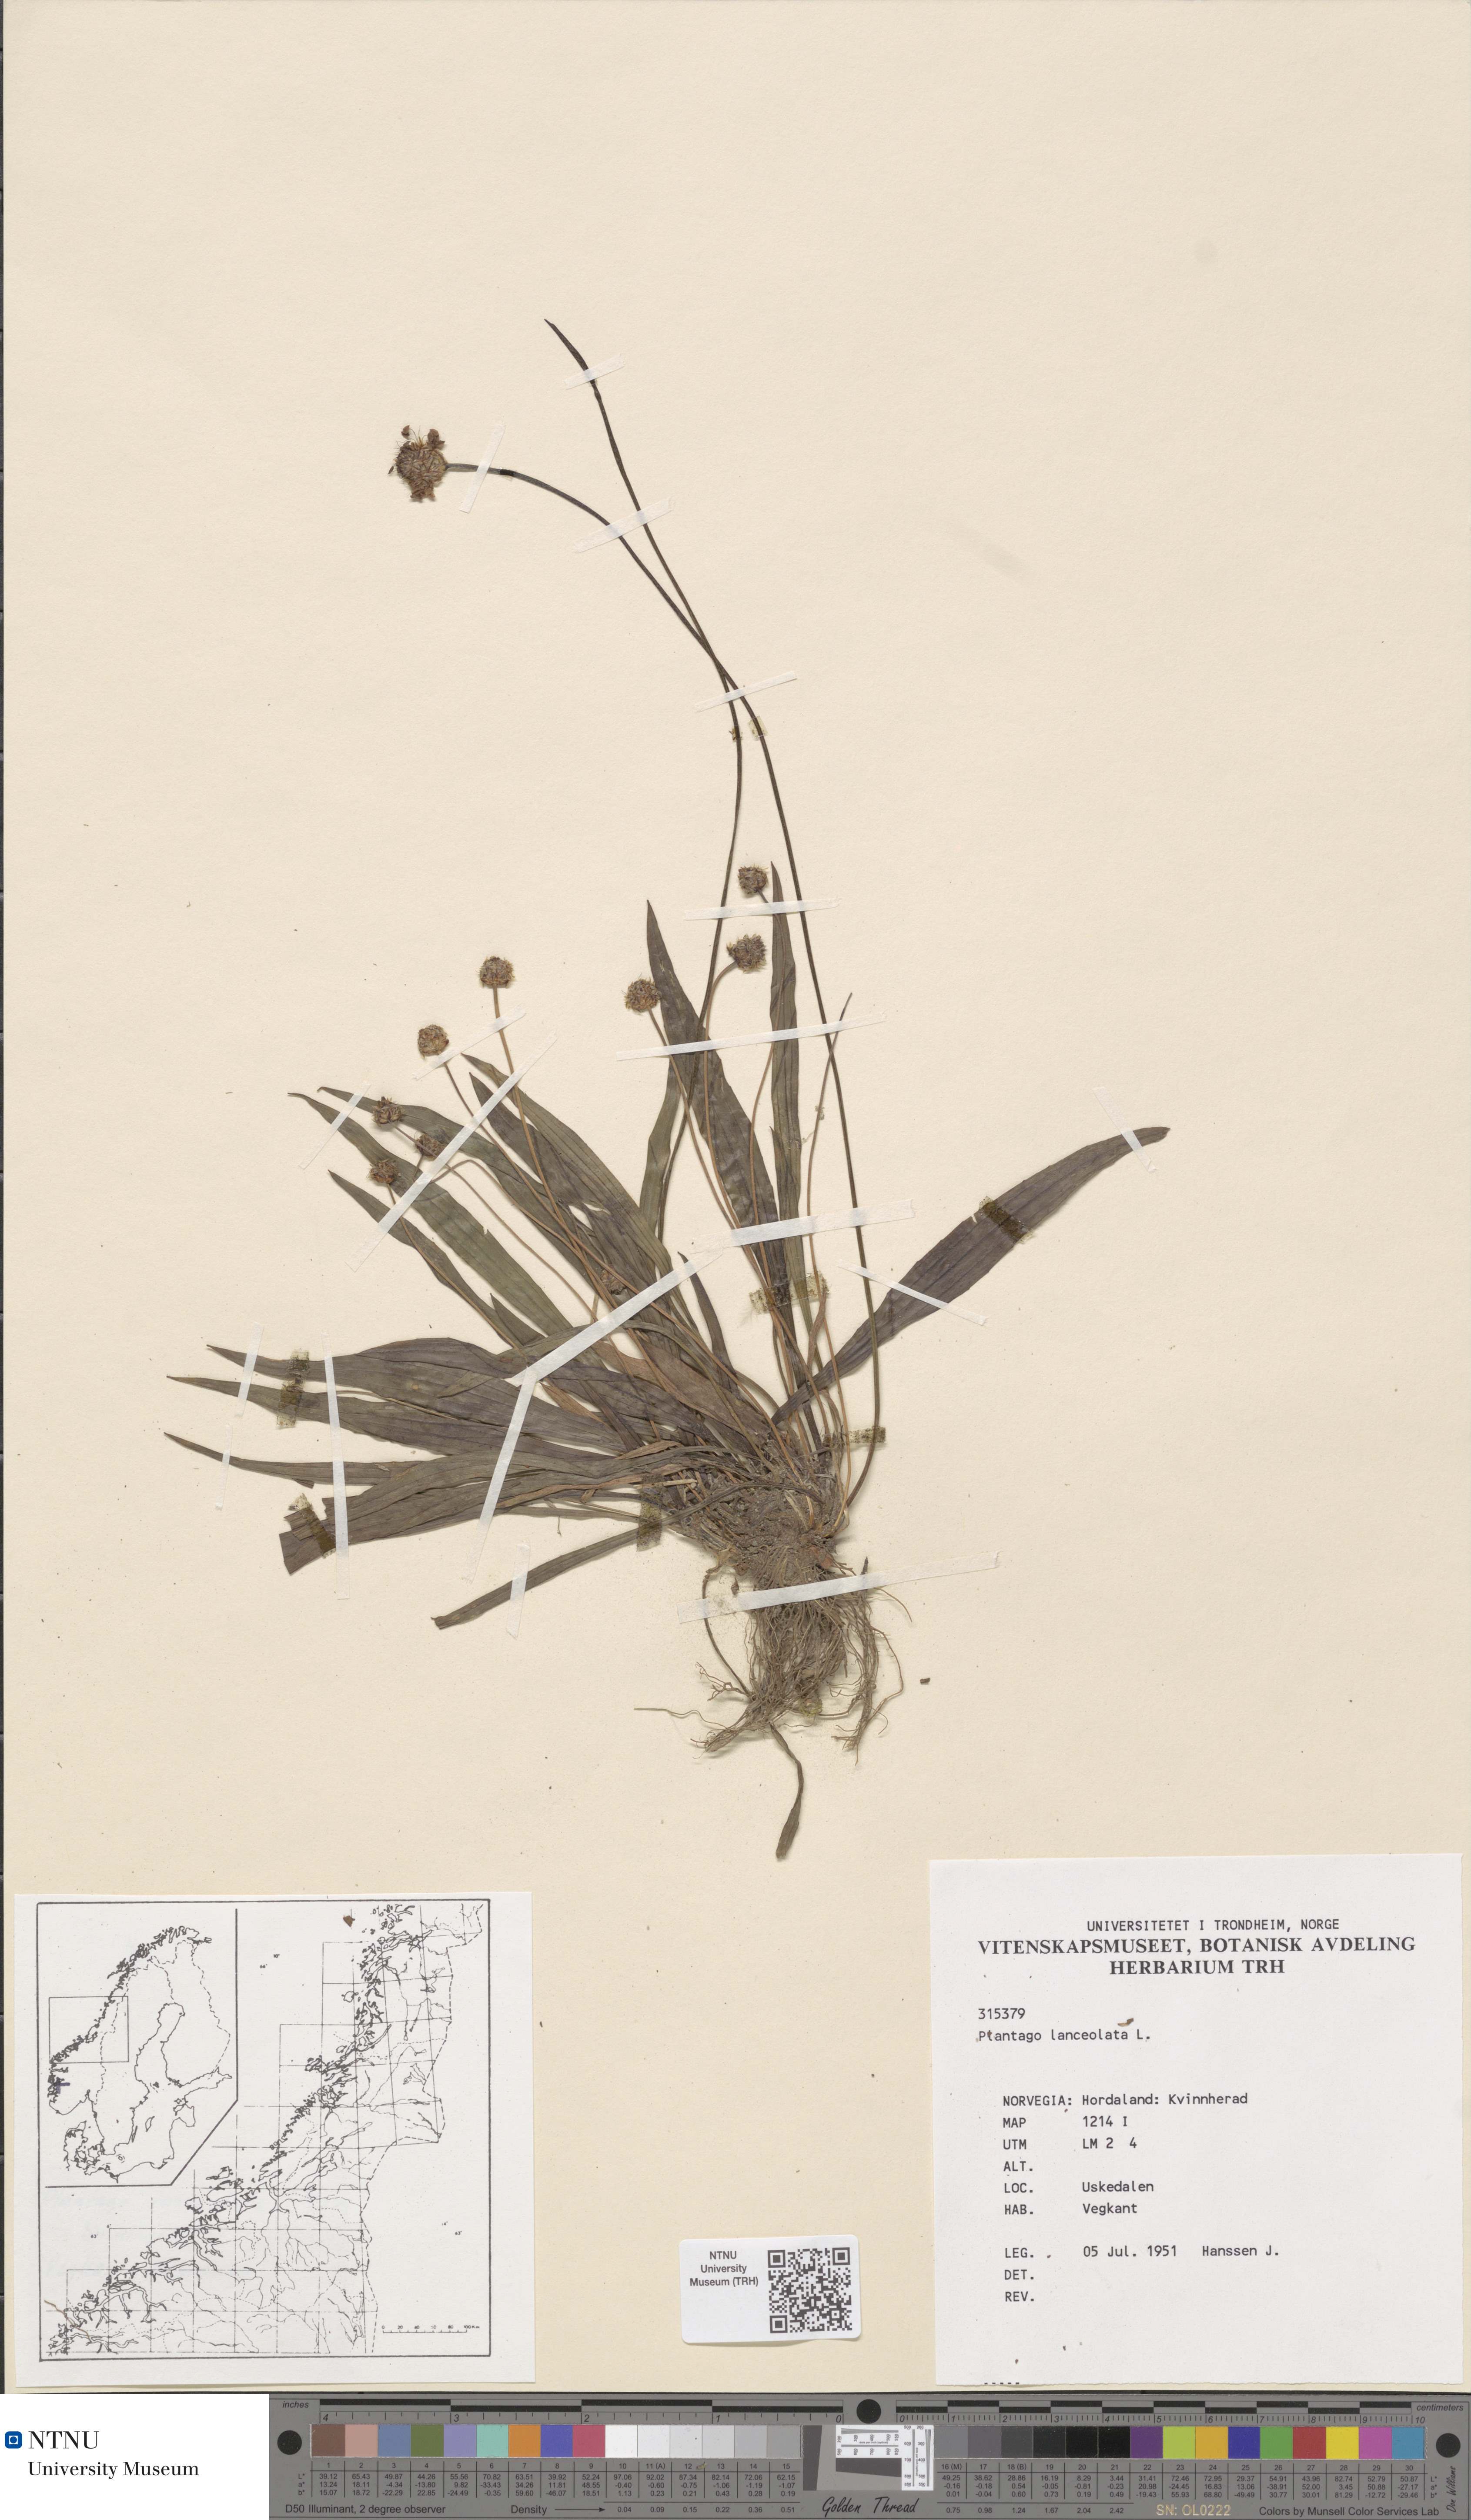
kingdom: Plantae
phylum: Tracheophyta
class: Magnoliopsida
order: Lamiales
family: Plantaginaceae
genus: Plantago
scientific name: Plantago lanceolata
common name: Ribwort plantain
